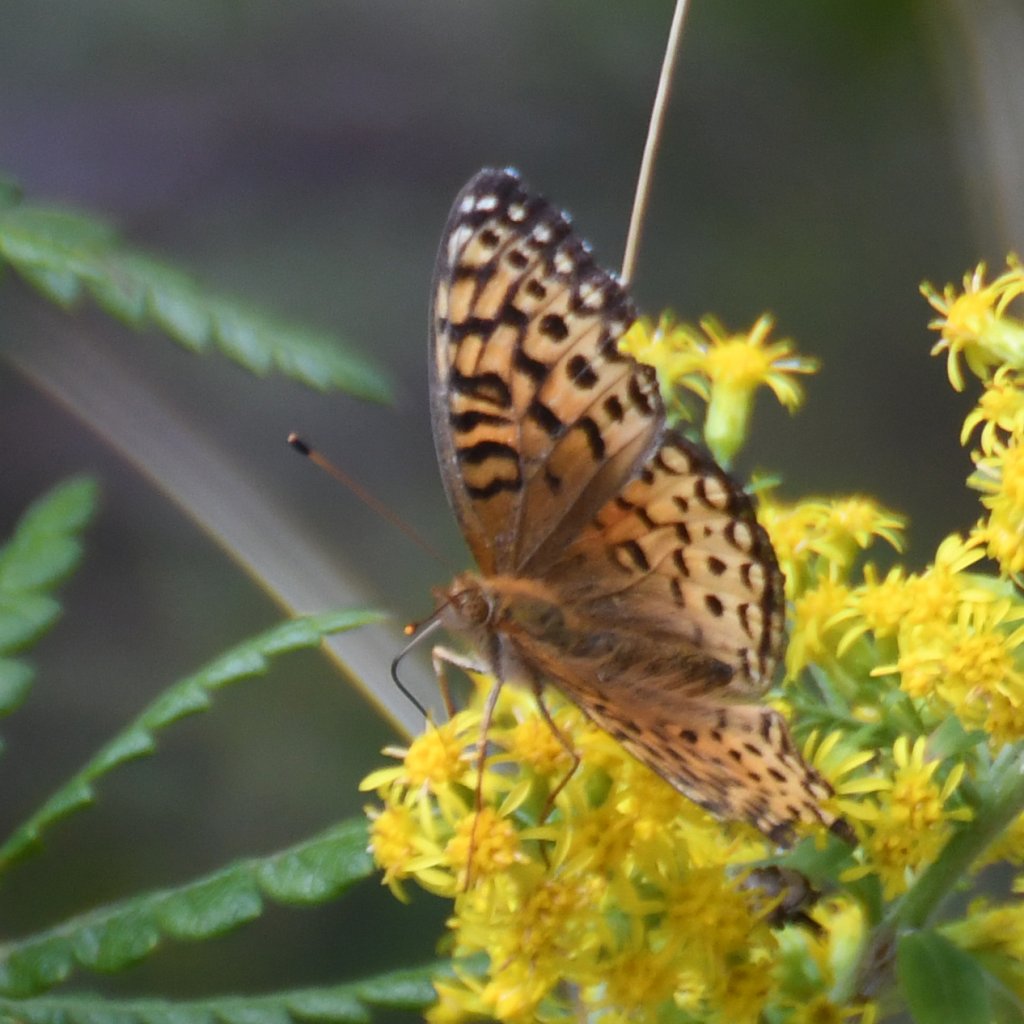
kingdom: Animalia
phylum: Arthropoda
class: Insecta
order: Lepidoptera
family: Nymphalidae
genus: Speyeria
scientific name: Speyeria aphrodite
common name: Aphrodite Fritillary
